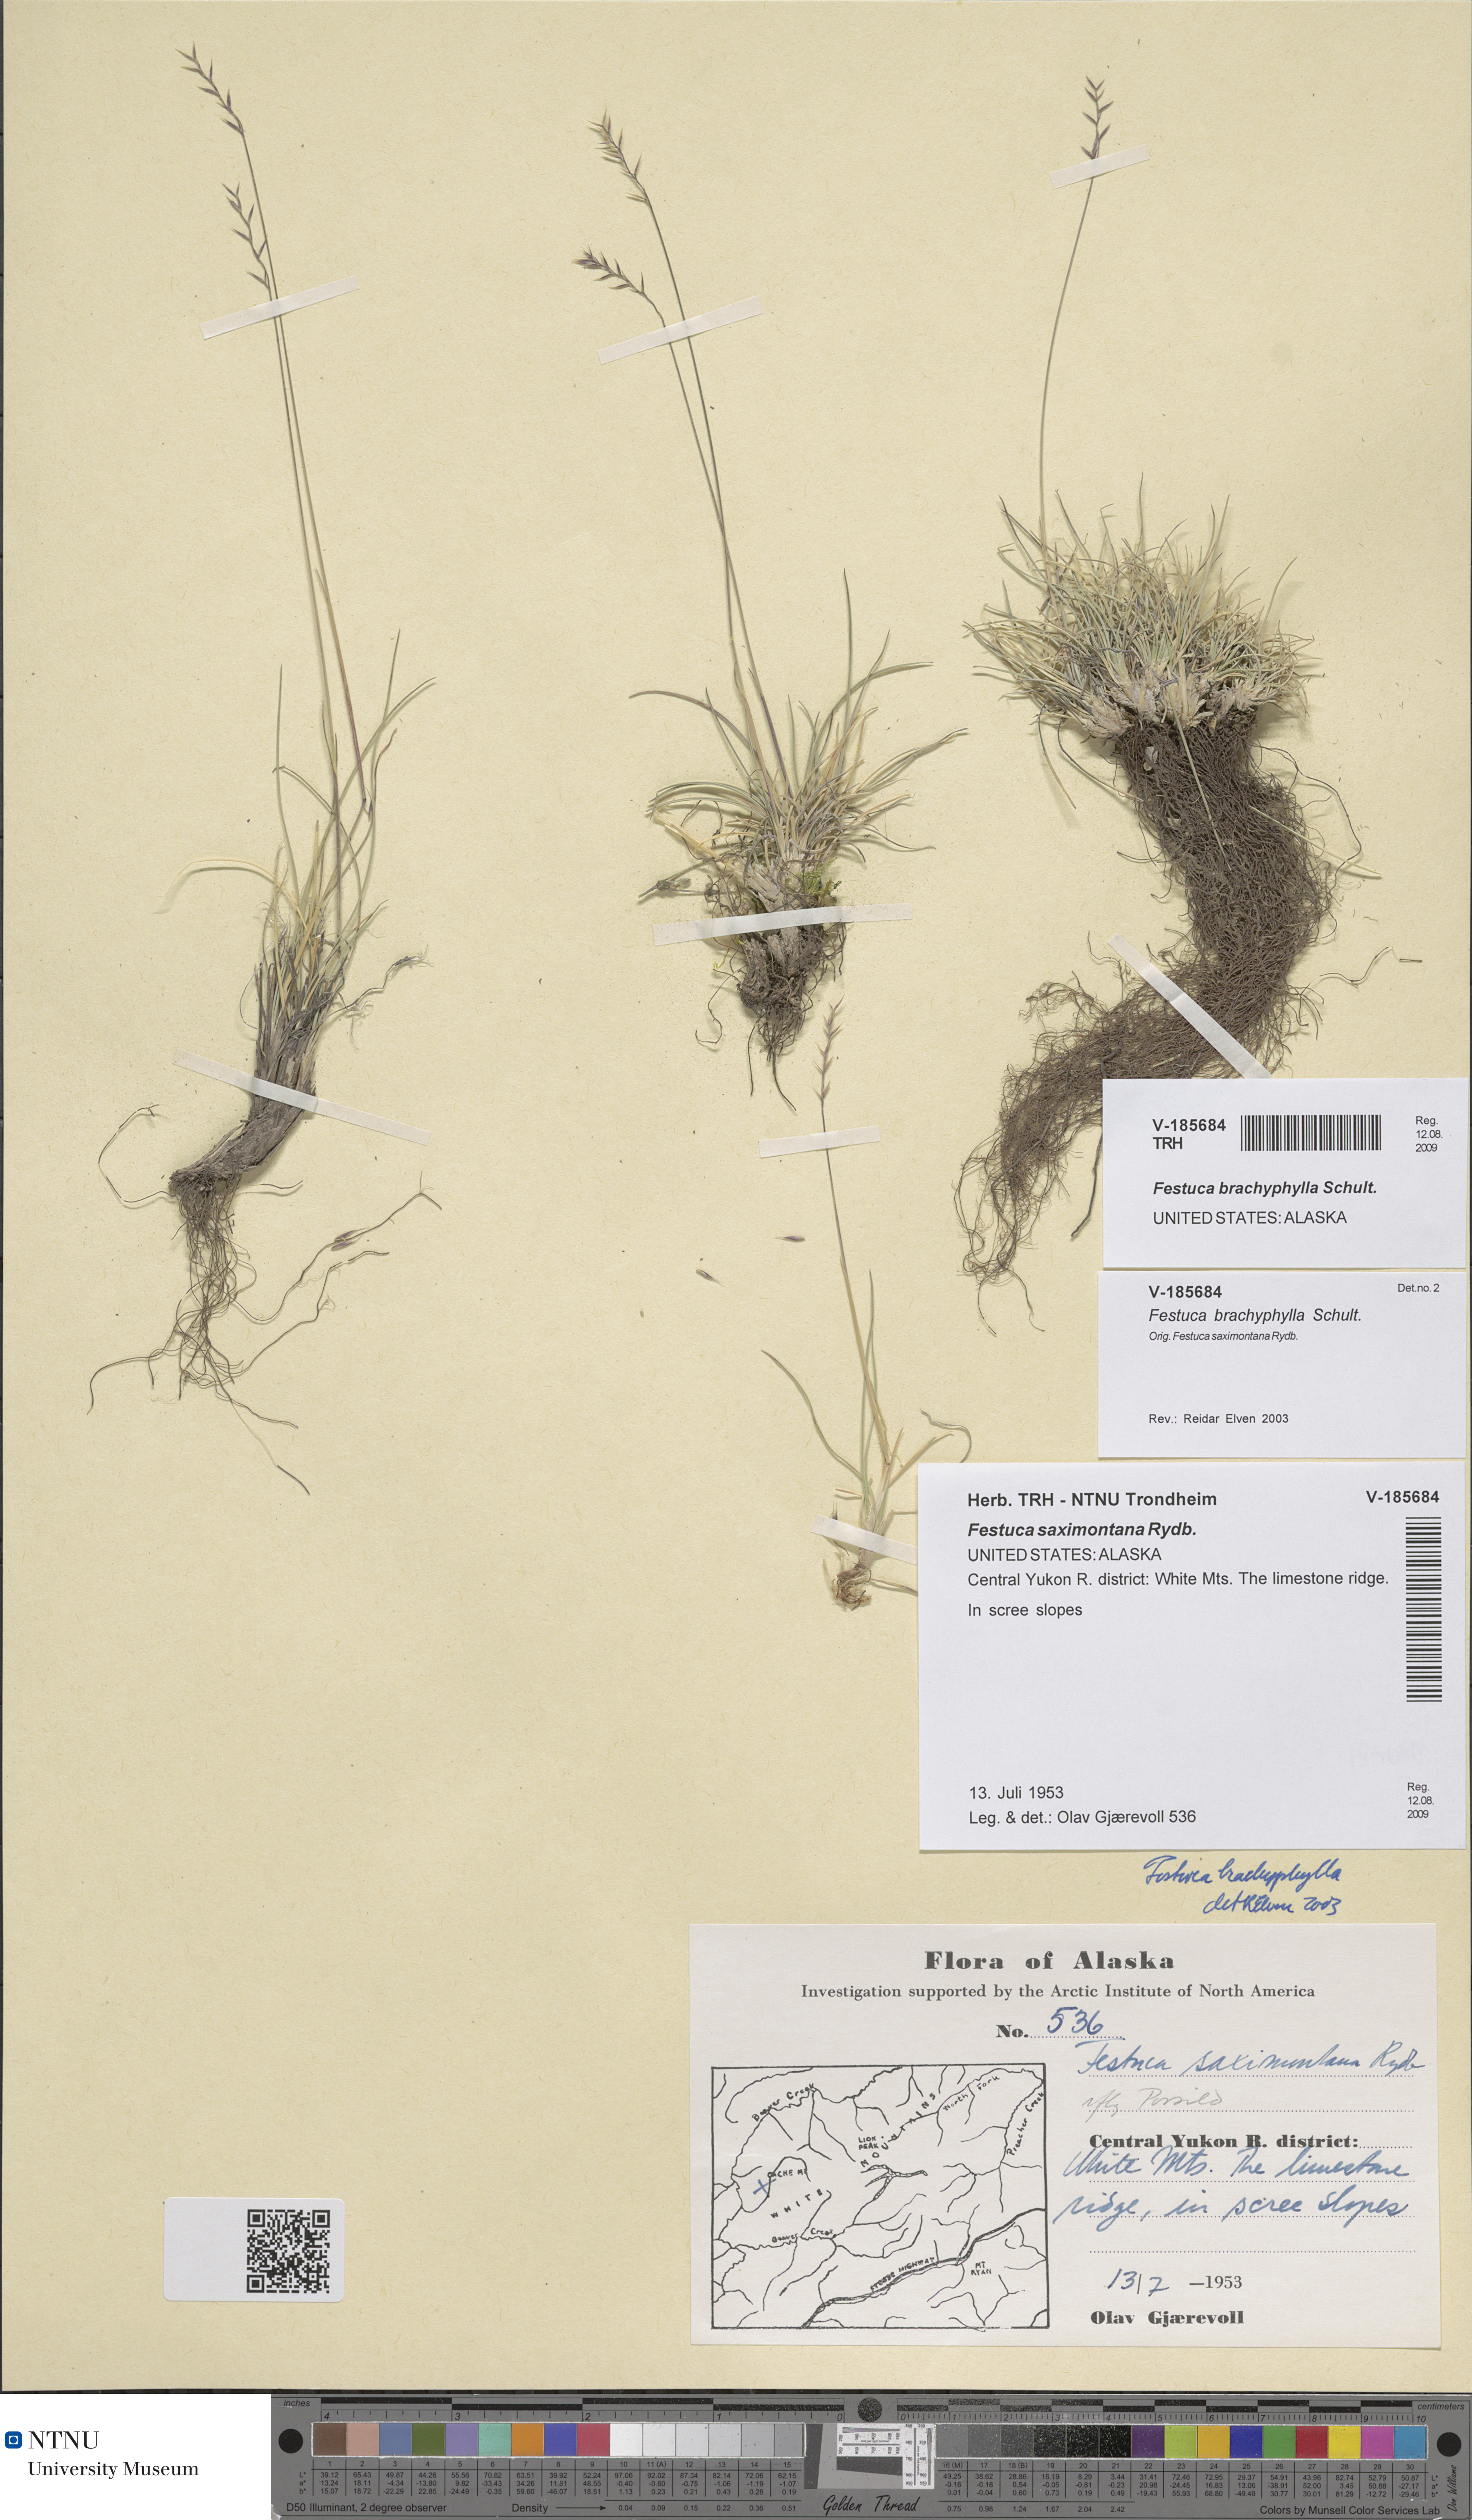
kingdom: Plantae
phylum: Tracheophyta
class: Liliopsida
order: Poales
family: Poaceae
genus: Festuca
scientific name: Festuca brachyphylla
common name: Alpine fescue
